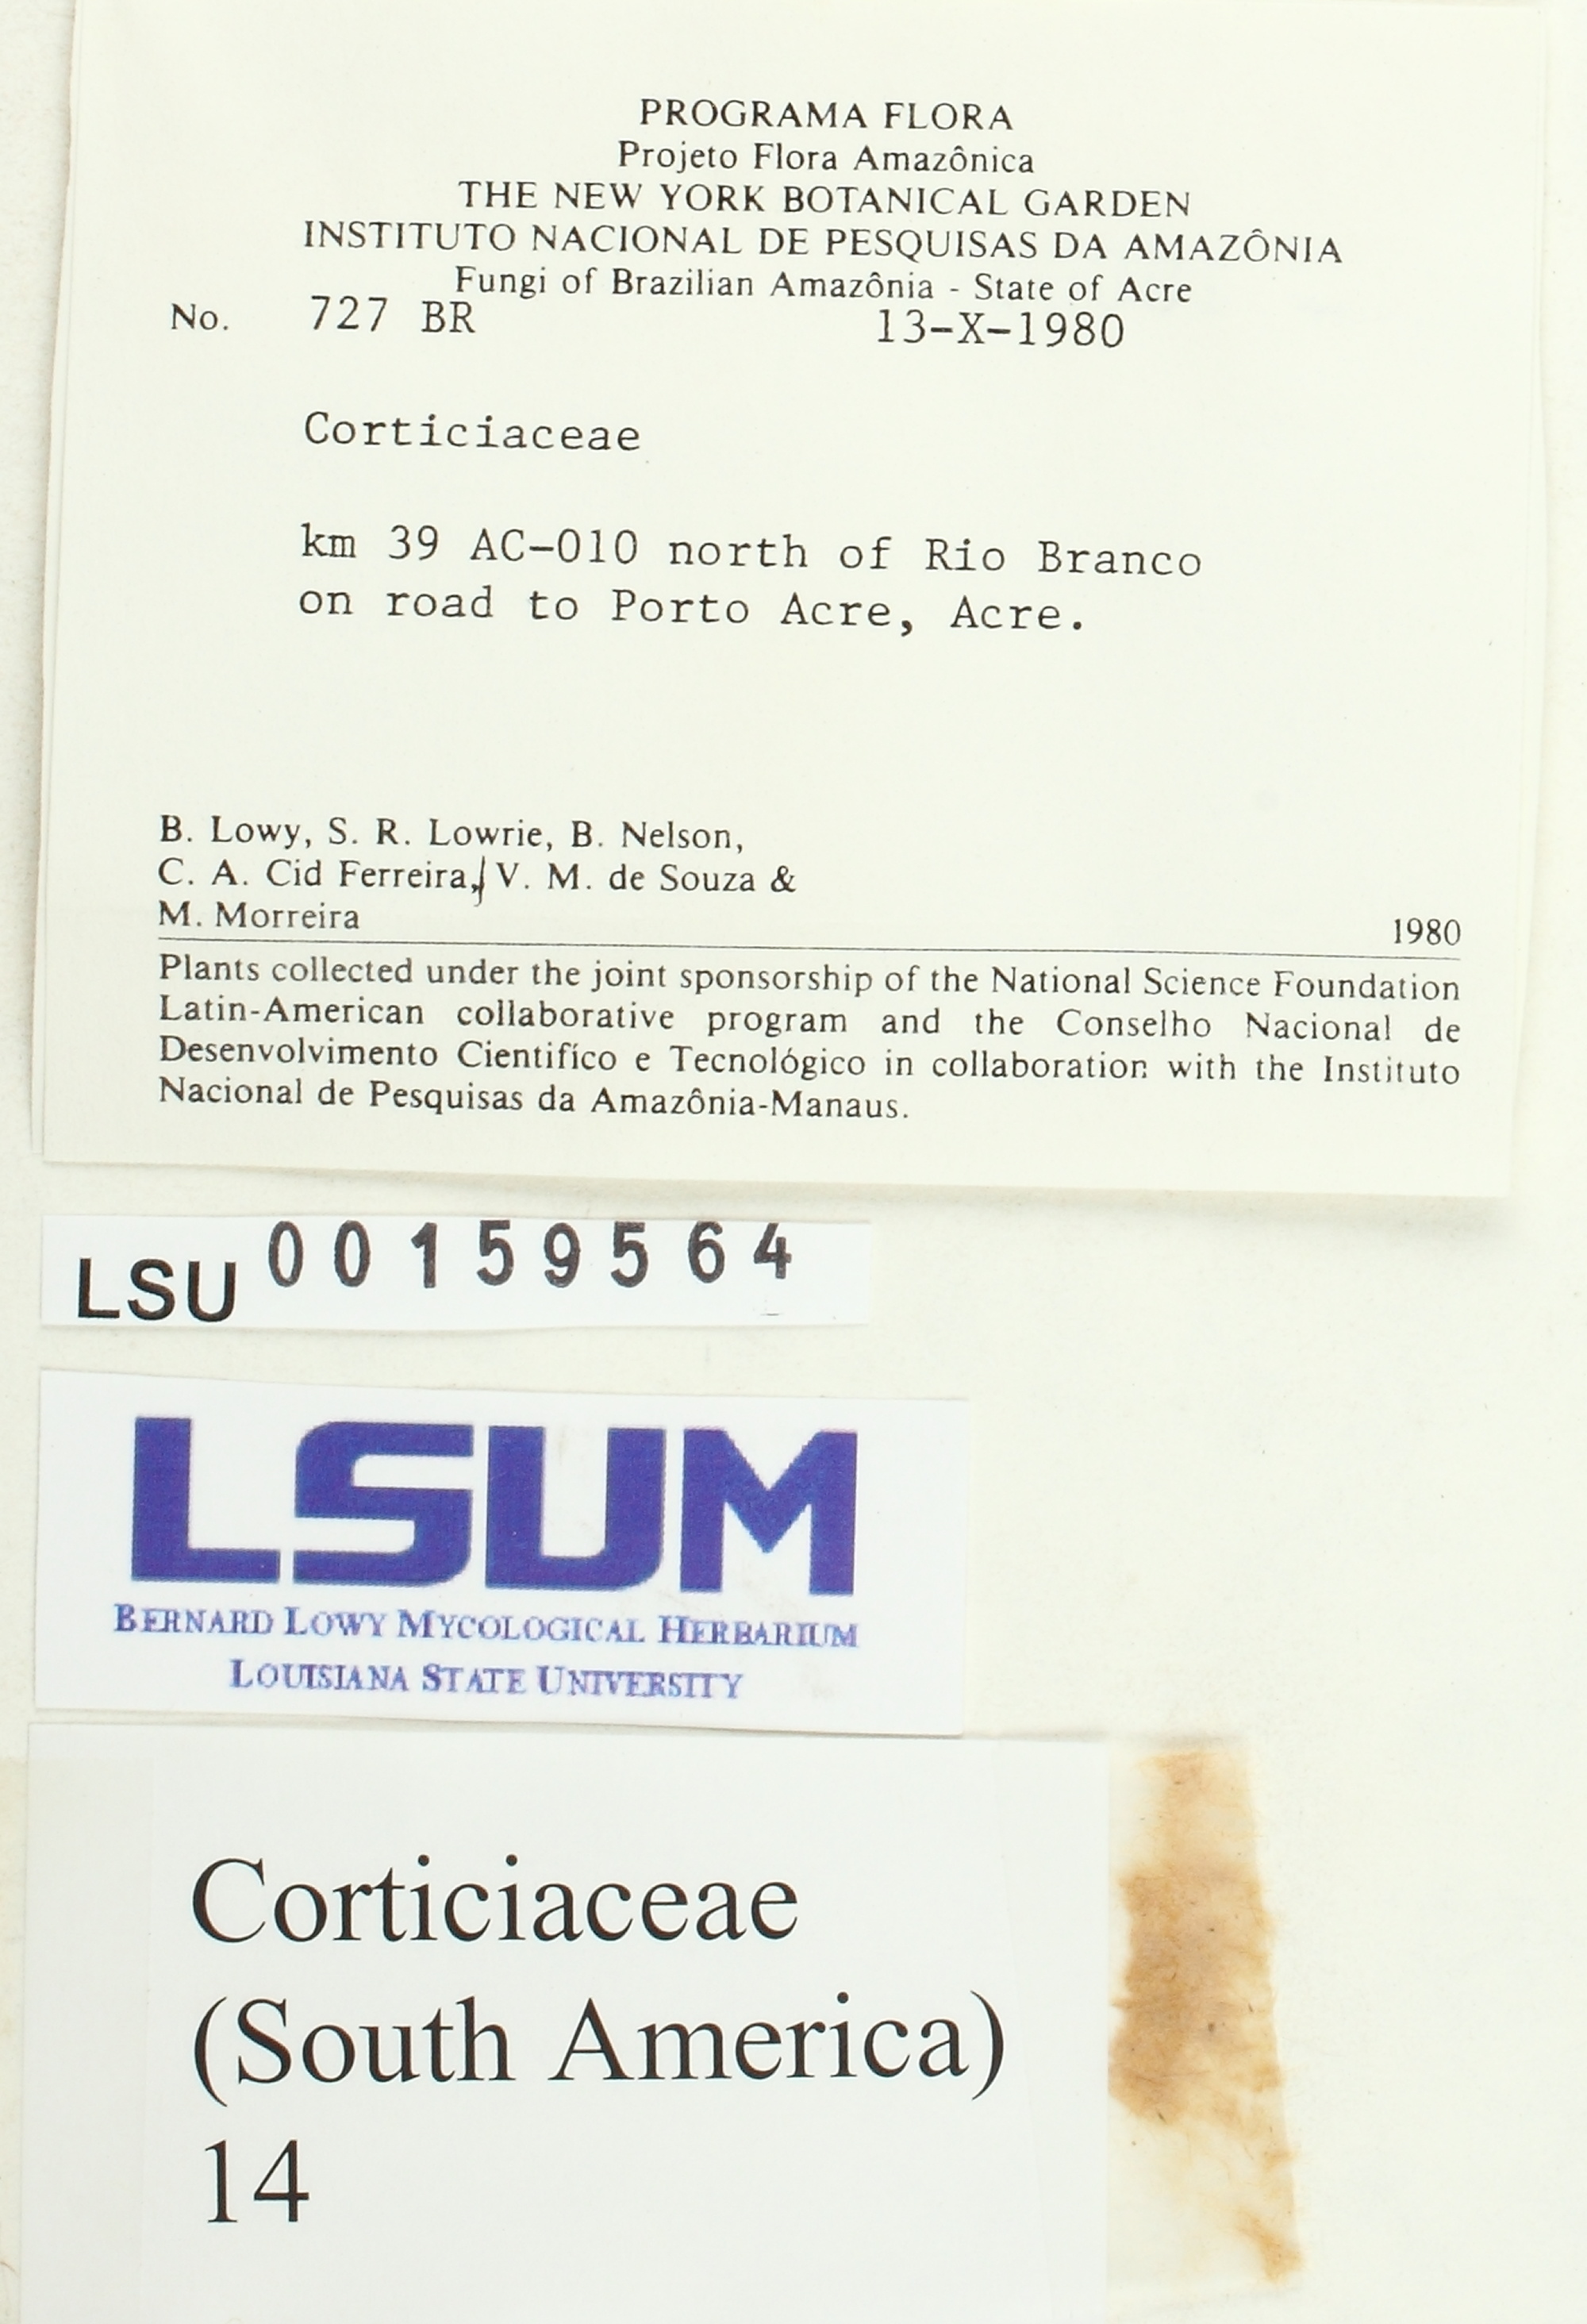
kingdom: Fungi
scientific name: Fungi
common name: Fungi
